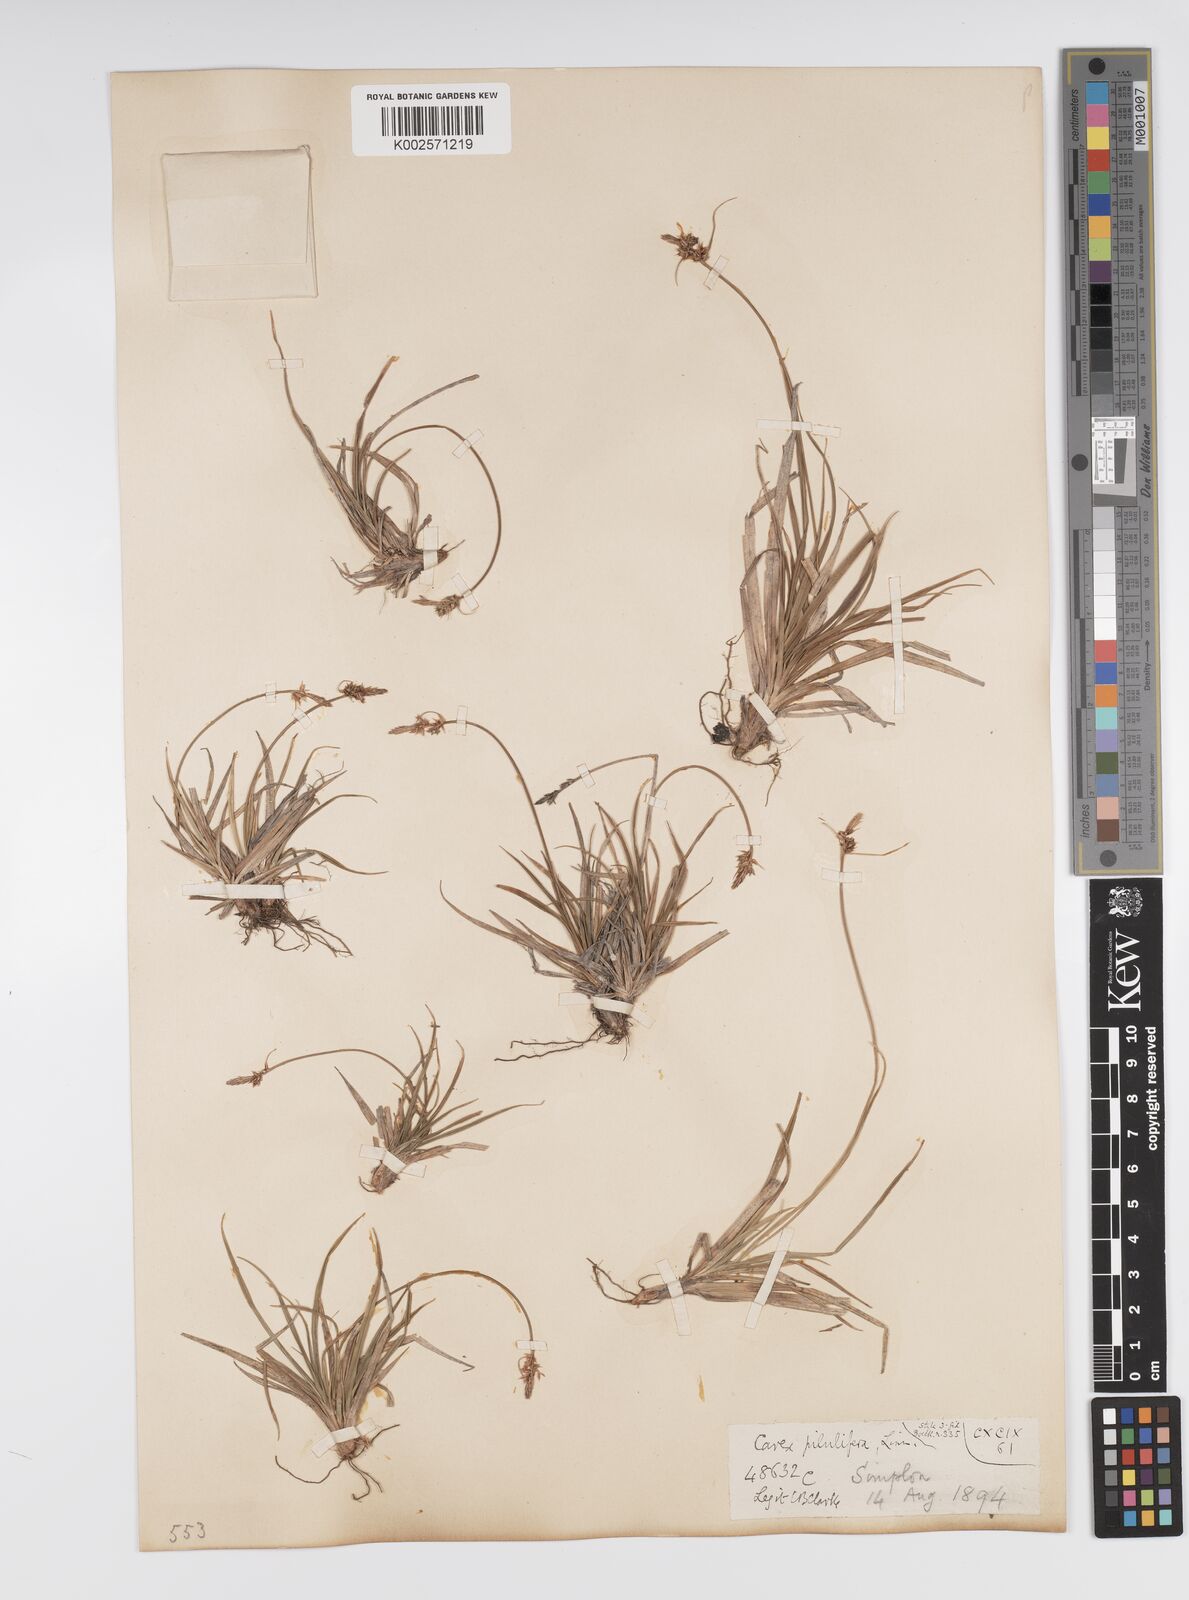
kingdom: Plantae
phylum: Tracheophyta
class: Liliopsida
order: Poales
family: Cyperaceae
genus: Carex
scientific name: Carex pilulifera
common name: Pill sedge
